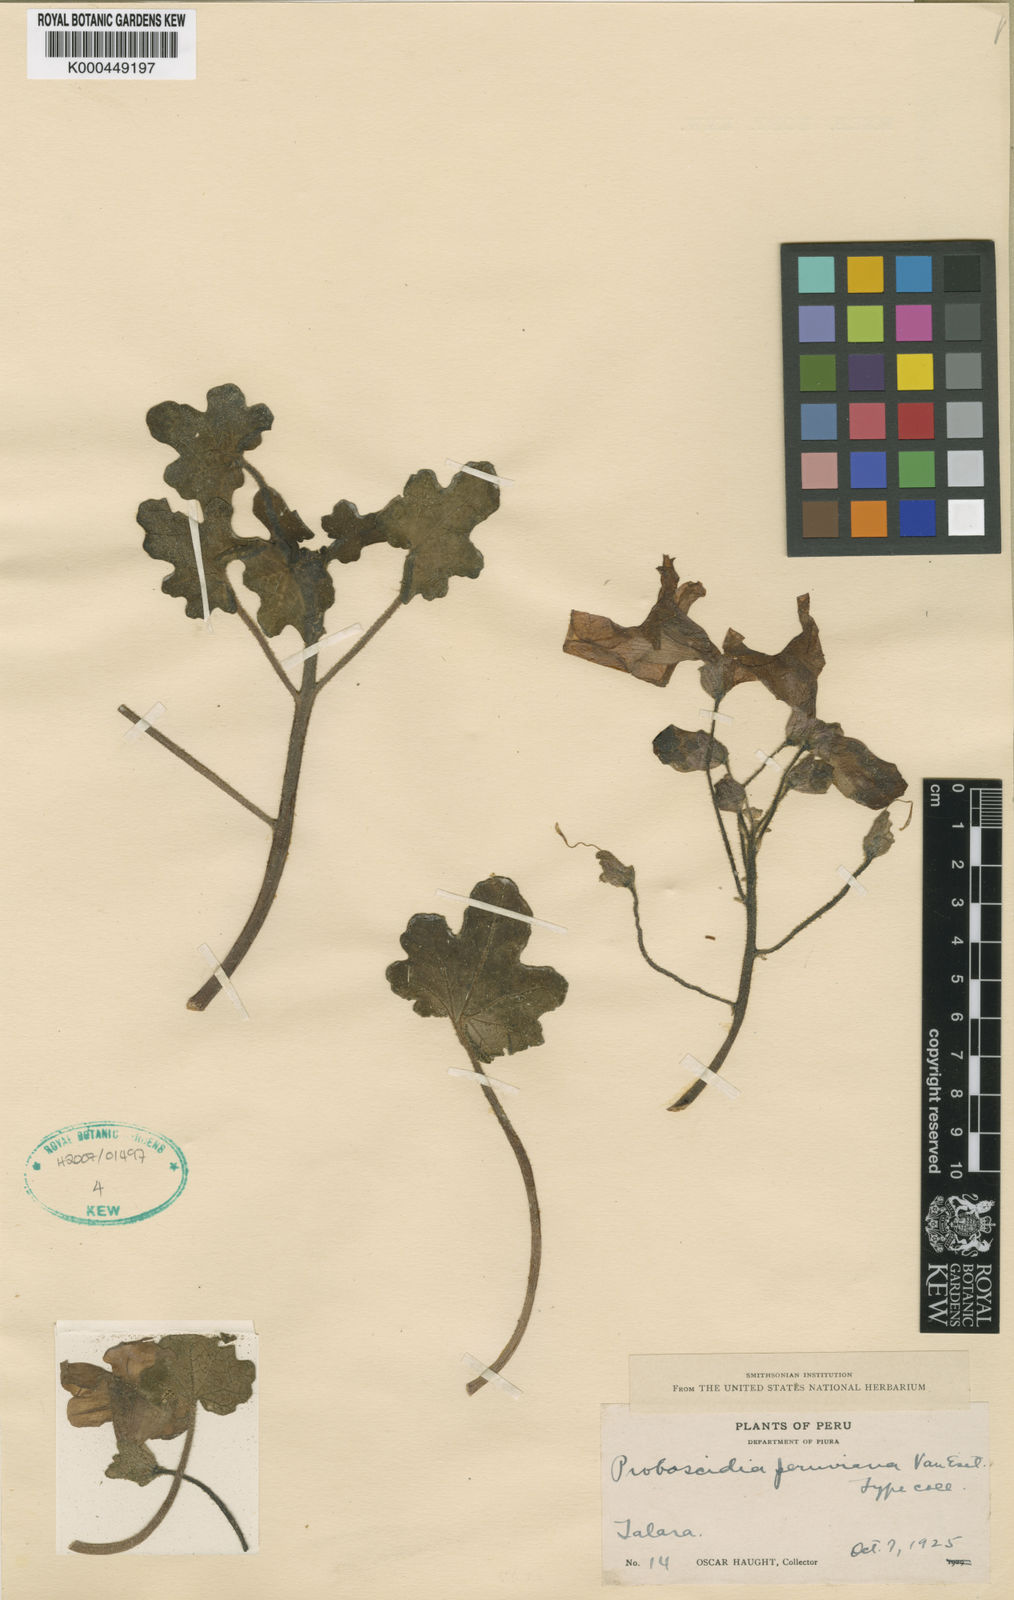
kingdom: Plantae
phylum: Tracheophyta
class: Magnoliopsida
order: Lamiales
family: Martyniaceae
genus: Proboscidea
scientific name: Proboscidea althaeifolia
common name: Desert unicorn-plant
